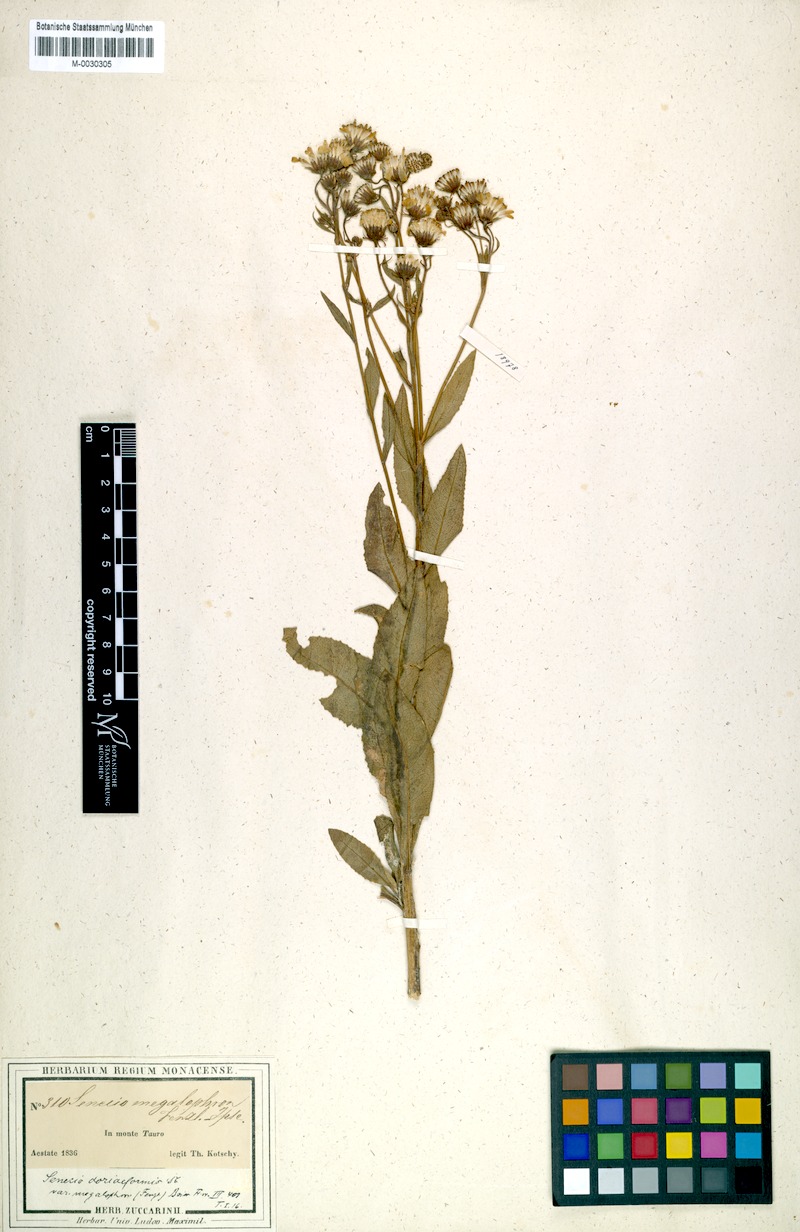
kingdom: Plantae
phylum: Tracheophyta
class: Magnoliopsida
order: Asterales
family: Asteraceae
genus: Senecio
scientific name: Senecio doriiformis
